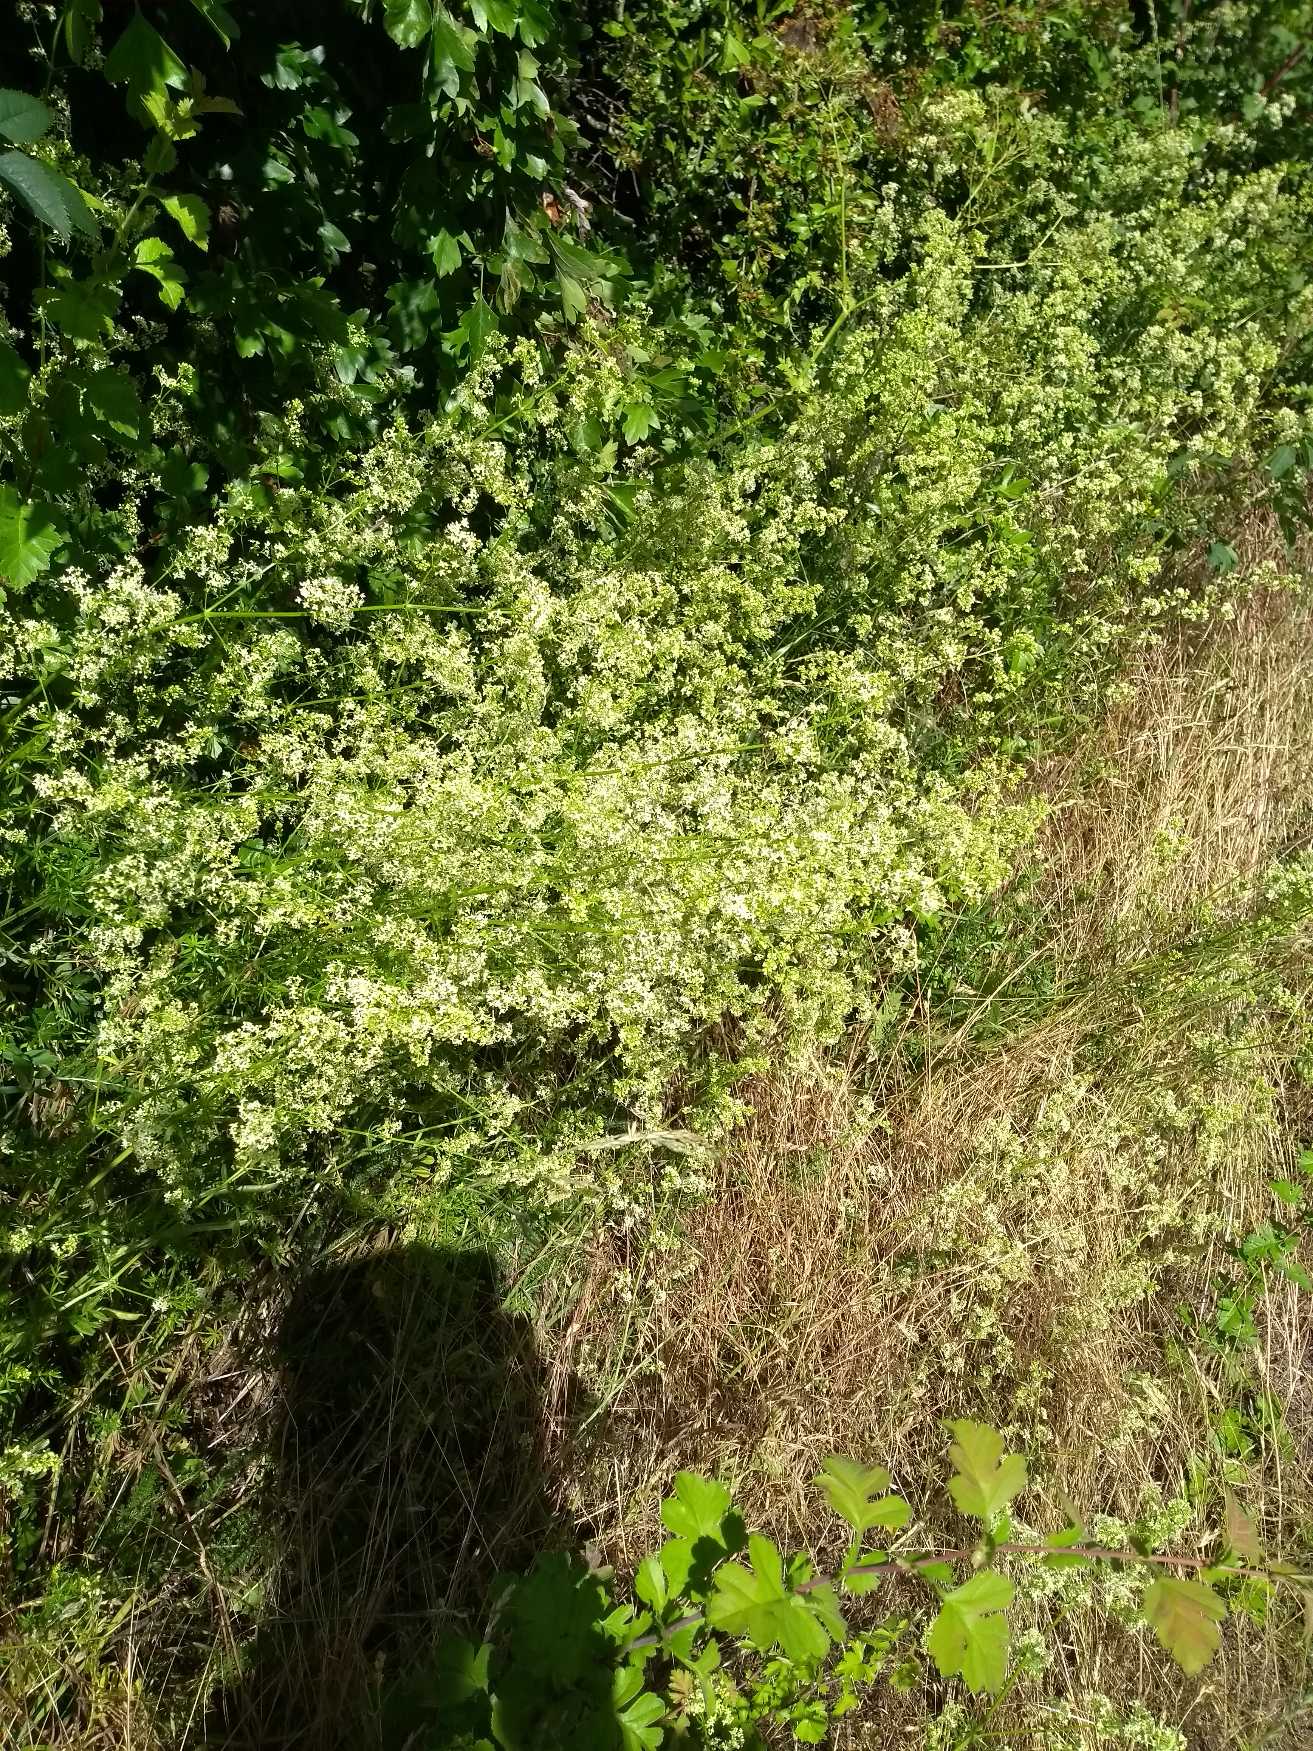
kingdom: Plantae
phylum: Tracheophyta
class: Magnoliopsida
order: Gentianales
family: Rubiaceae
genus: Galium
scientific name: Galium mollugo
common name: Hvid snerre
